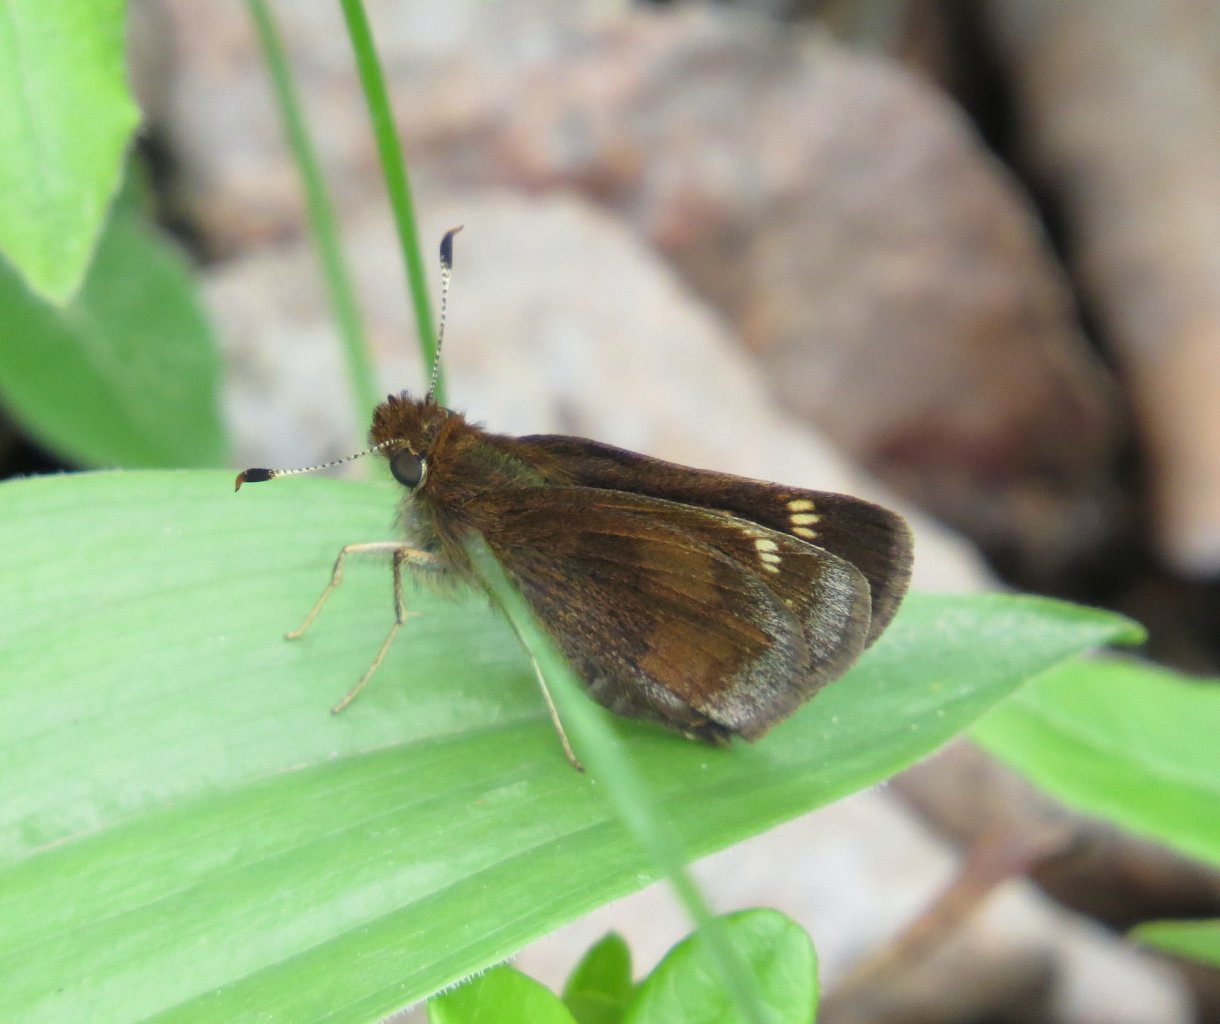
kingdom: Animalia
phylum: Arthropoda
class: Insecta
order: Lepidoptera
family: Hesperiidae
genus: Lon
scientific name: Lon hobomok
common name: Hobomok Skipper
